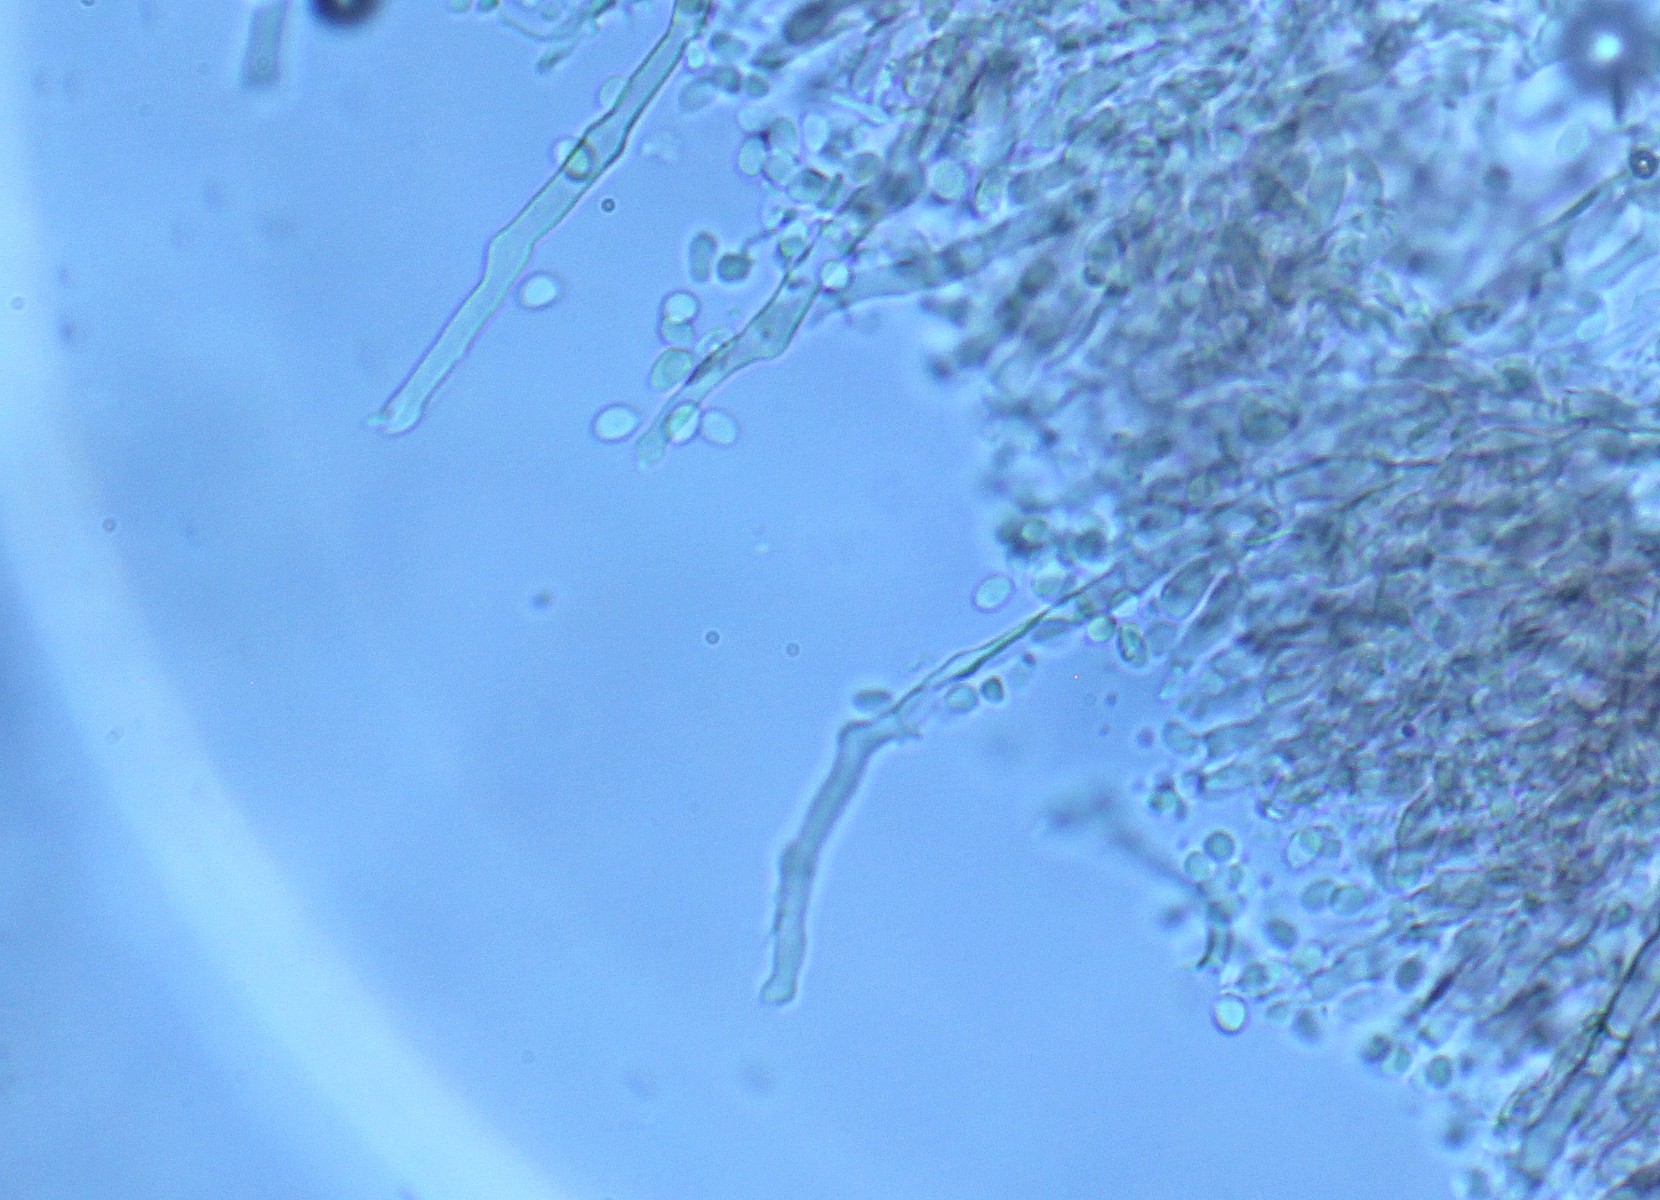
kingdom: Fungi
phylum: Basidiomycota
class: Agaricomycetes
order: Hymenochaetales
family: Hyphodontiaceae
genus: Hyphodontia
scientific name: Hyphodontia alutaria
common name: flaskerenser-nålehinde
